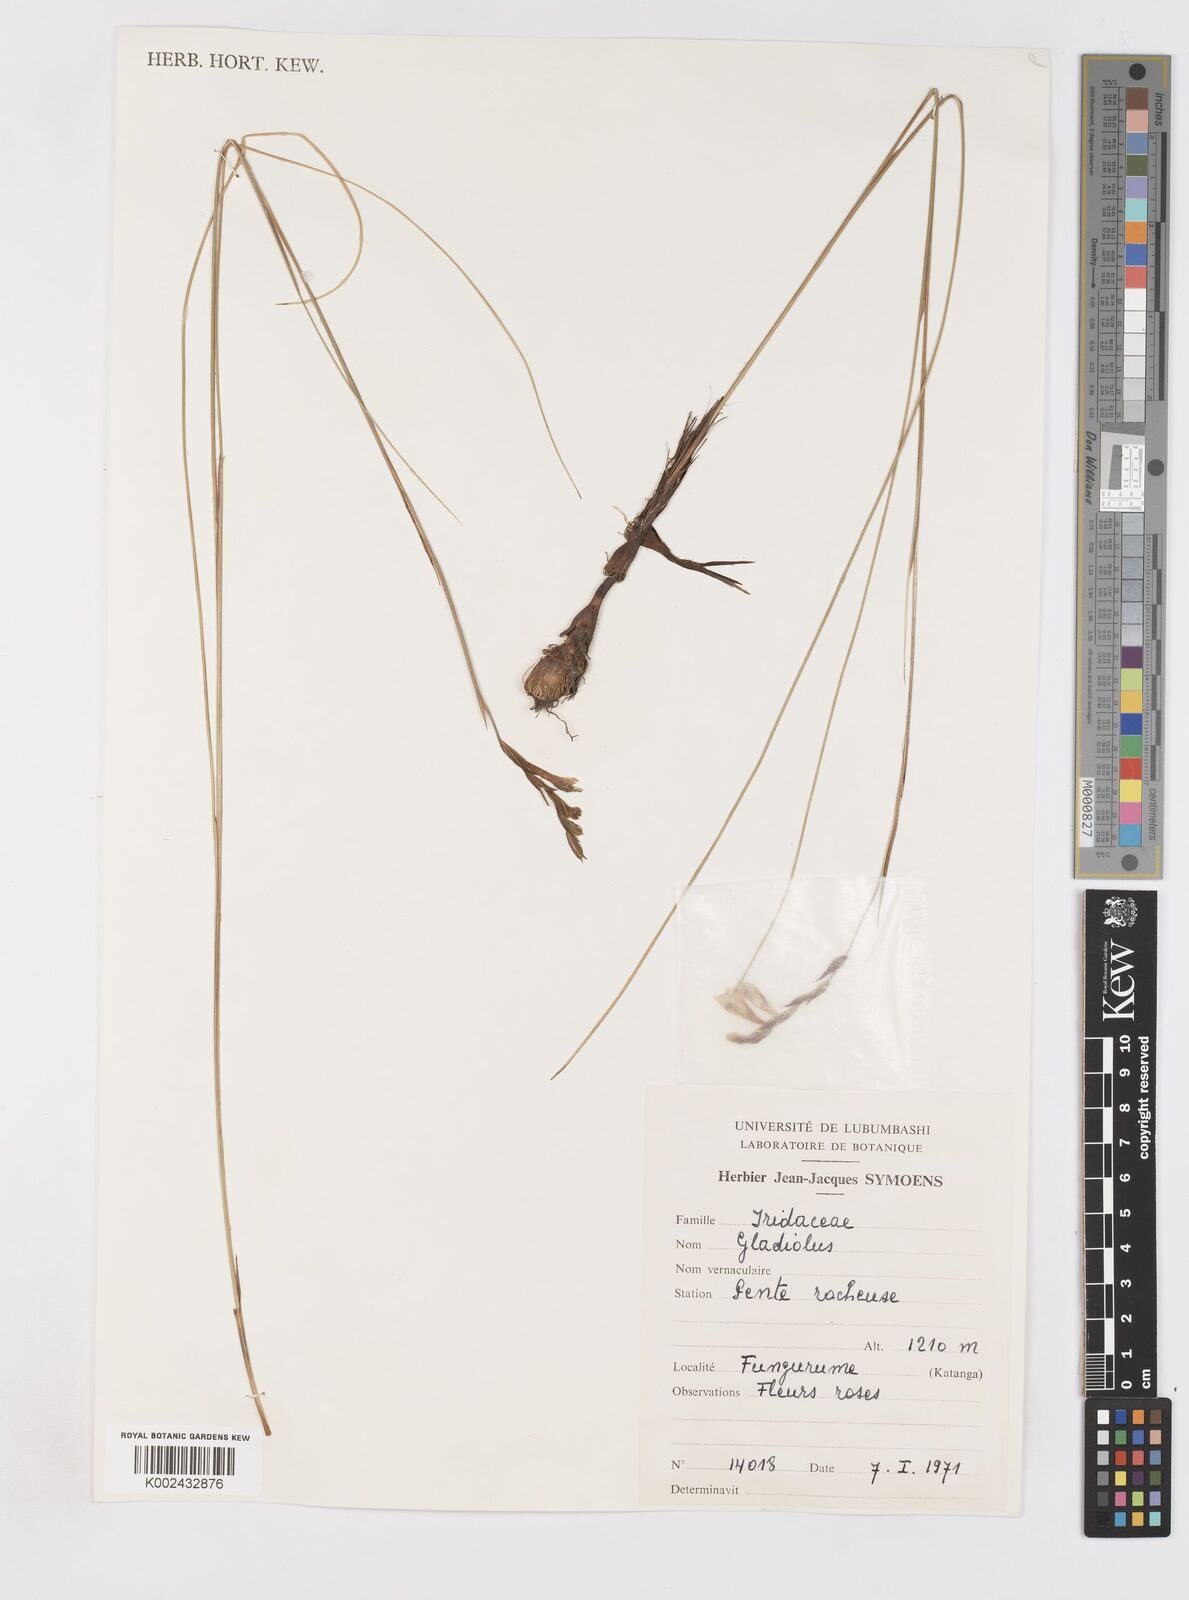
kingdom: Plantae
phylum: Tracheophyta
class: Liliopsida
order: Asparagales
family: Iridaceae
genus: Gladiolus
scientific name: Gladiolus ledoctei
